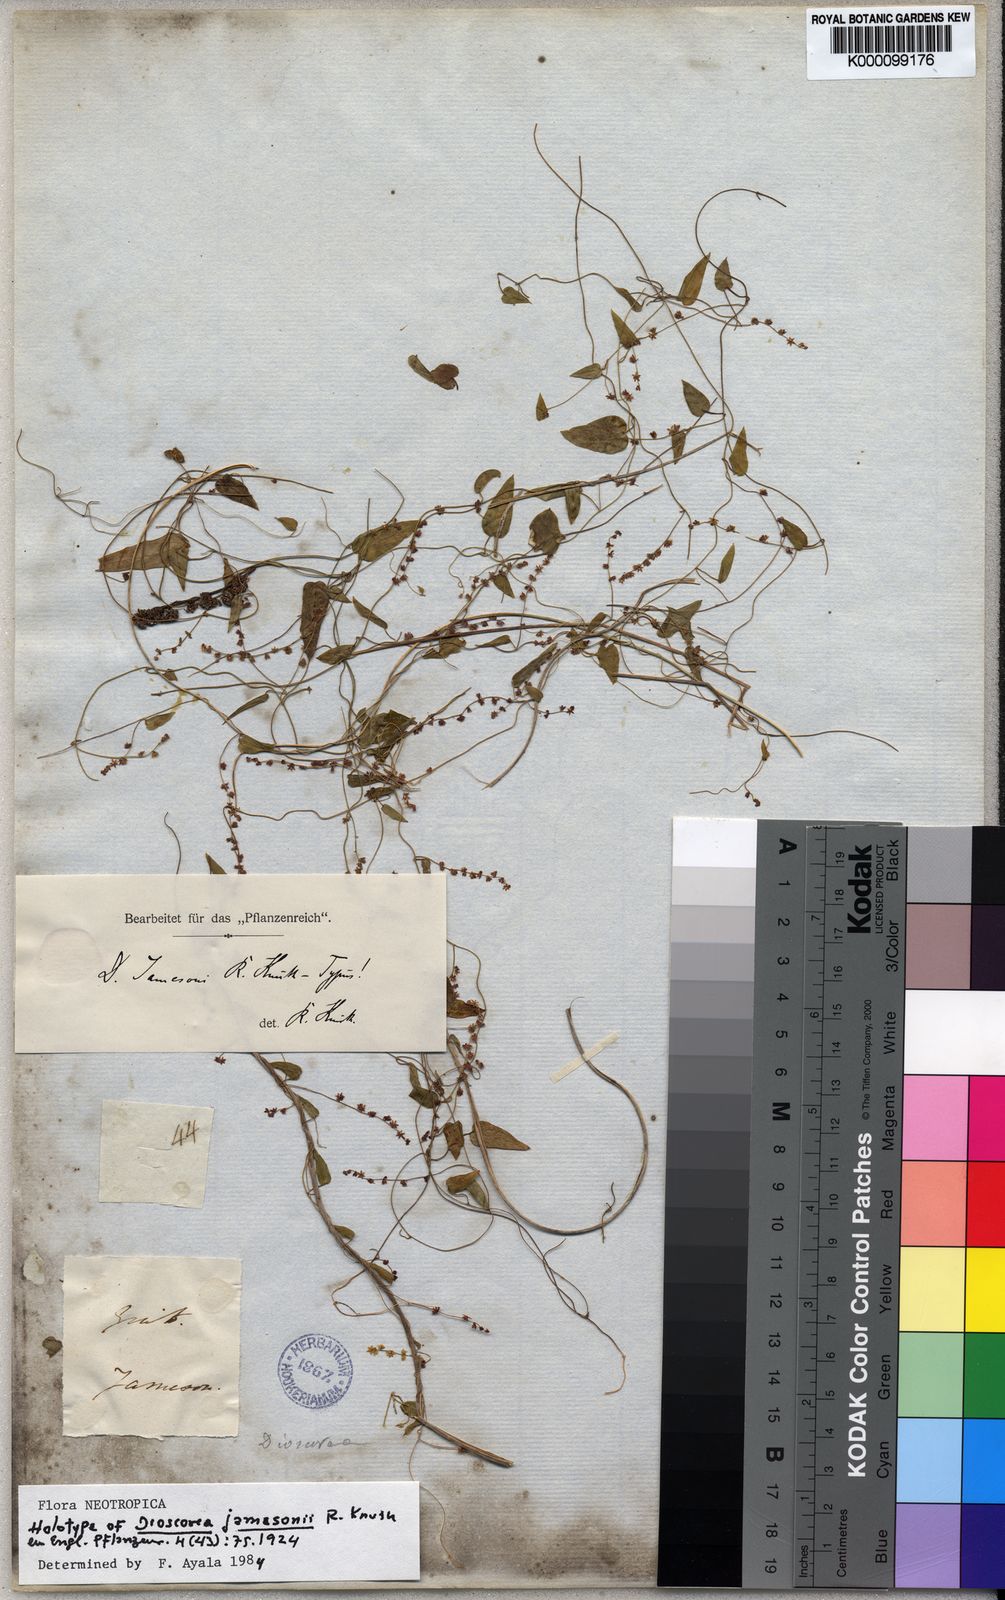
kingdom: Plantae
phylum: Tracheophyta
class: Liliopsida
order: Dioscoreales
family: Dioscoreaceae
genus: Dioscorea
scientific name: Dioscorea jamesonii
